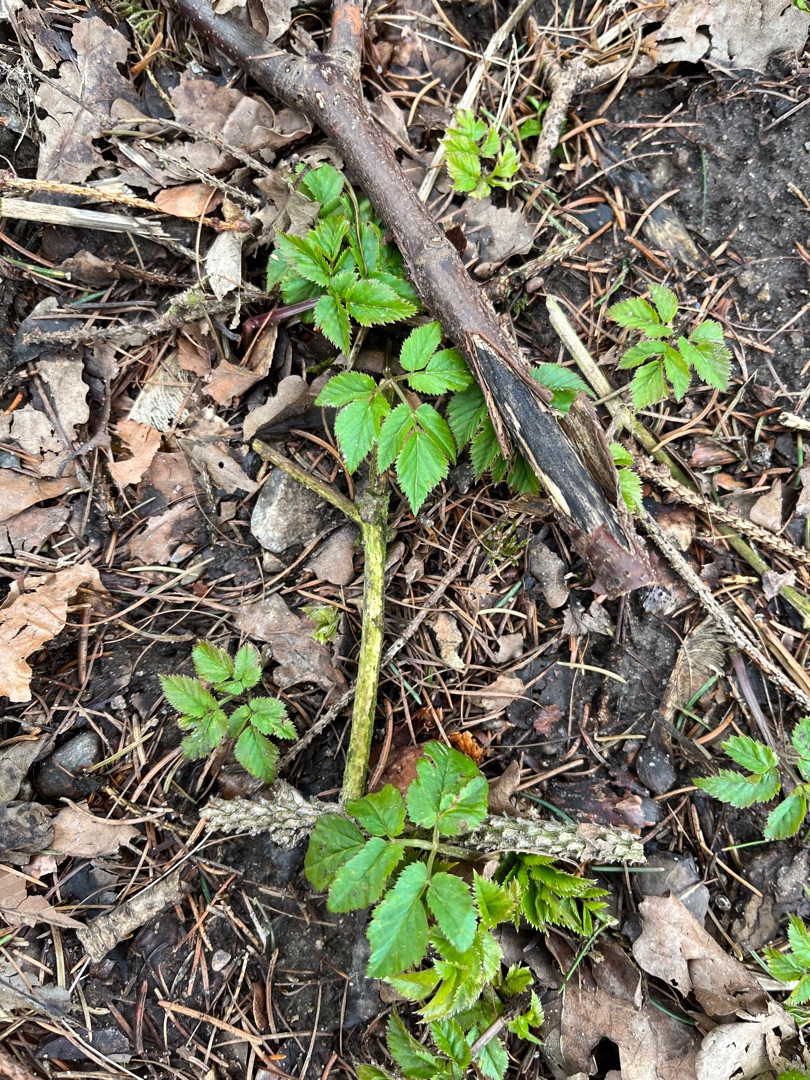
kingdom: Plantae
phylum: Tracheophyta
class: Magnoliopsida
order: Apiales
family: Apiaceae
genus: Aegopodium
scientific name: Aegopodium podagraria
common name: Skvalderkål
